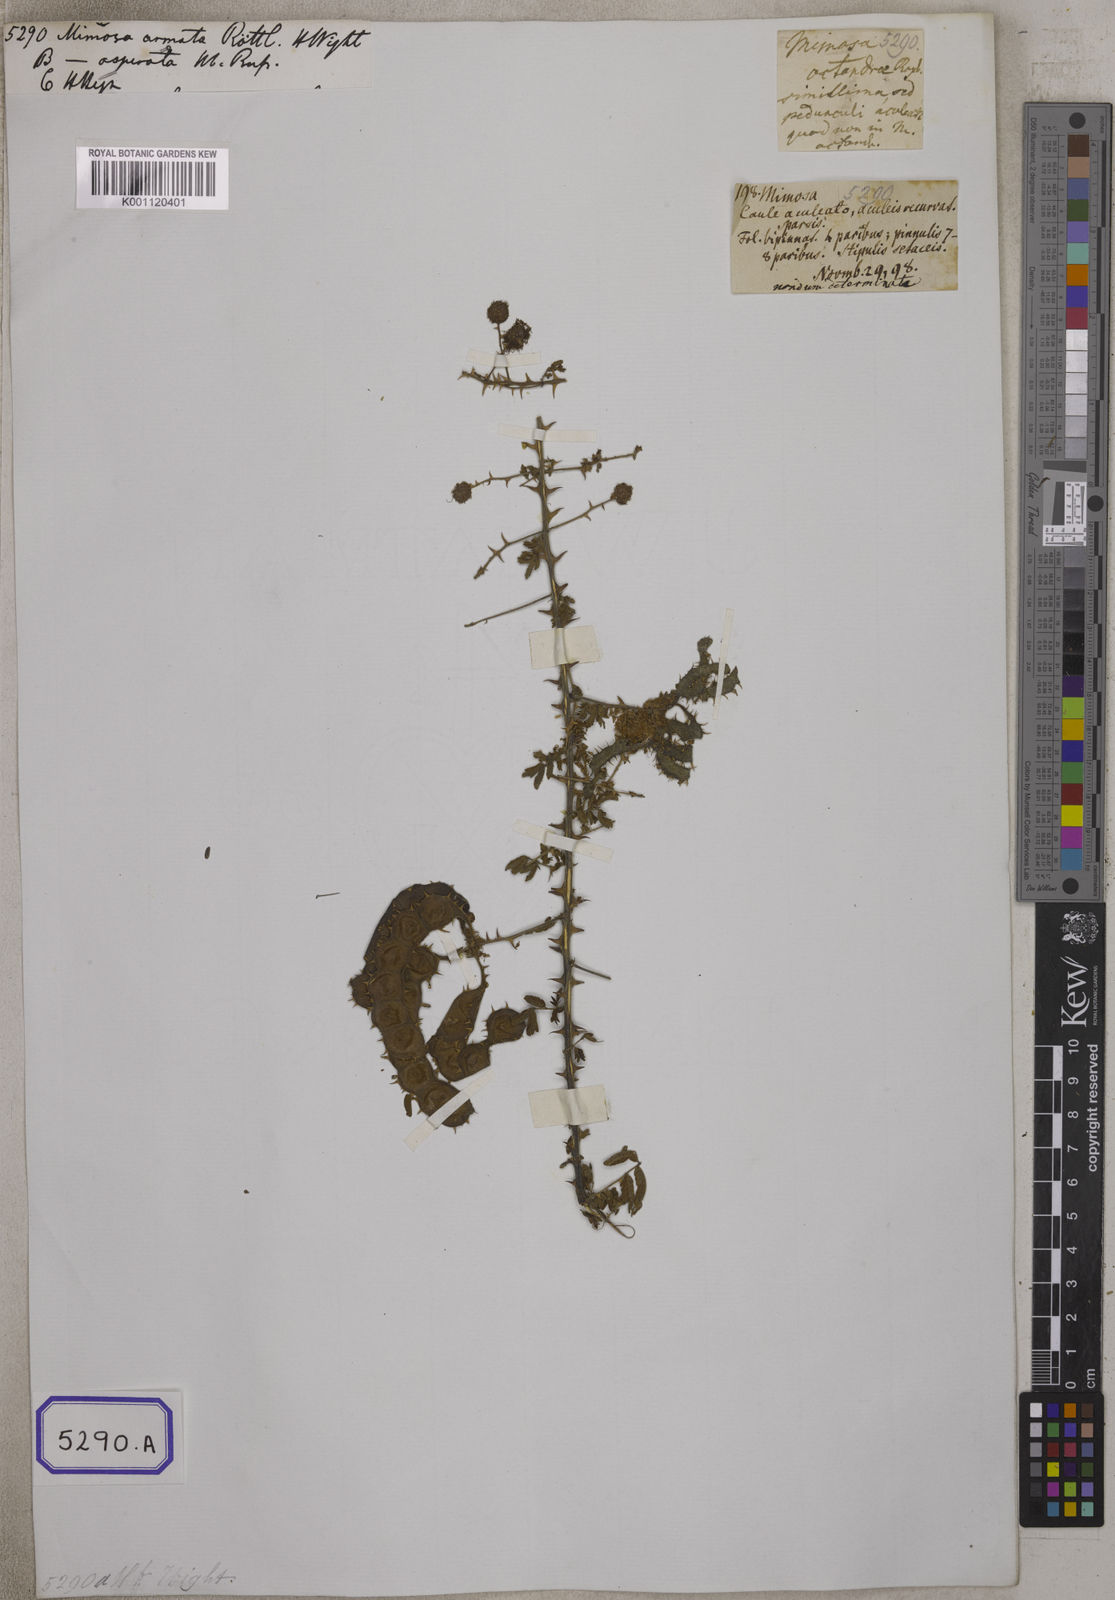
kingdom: Plantae
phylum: Tracheophyta
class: Magnoliopsida
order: Fabales
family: Fabaceae
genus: Mimosa
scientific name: Mimosa hamata
